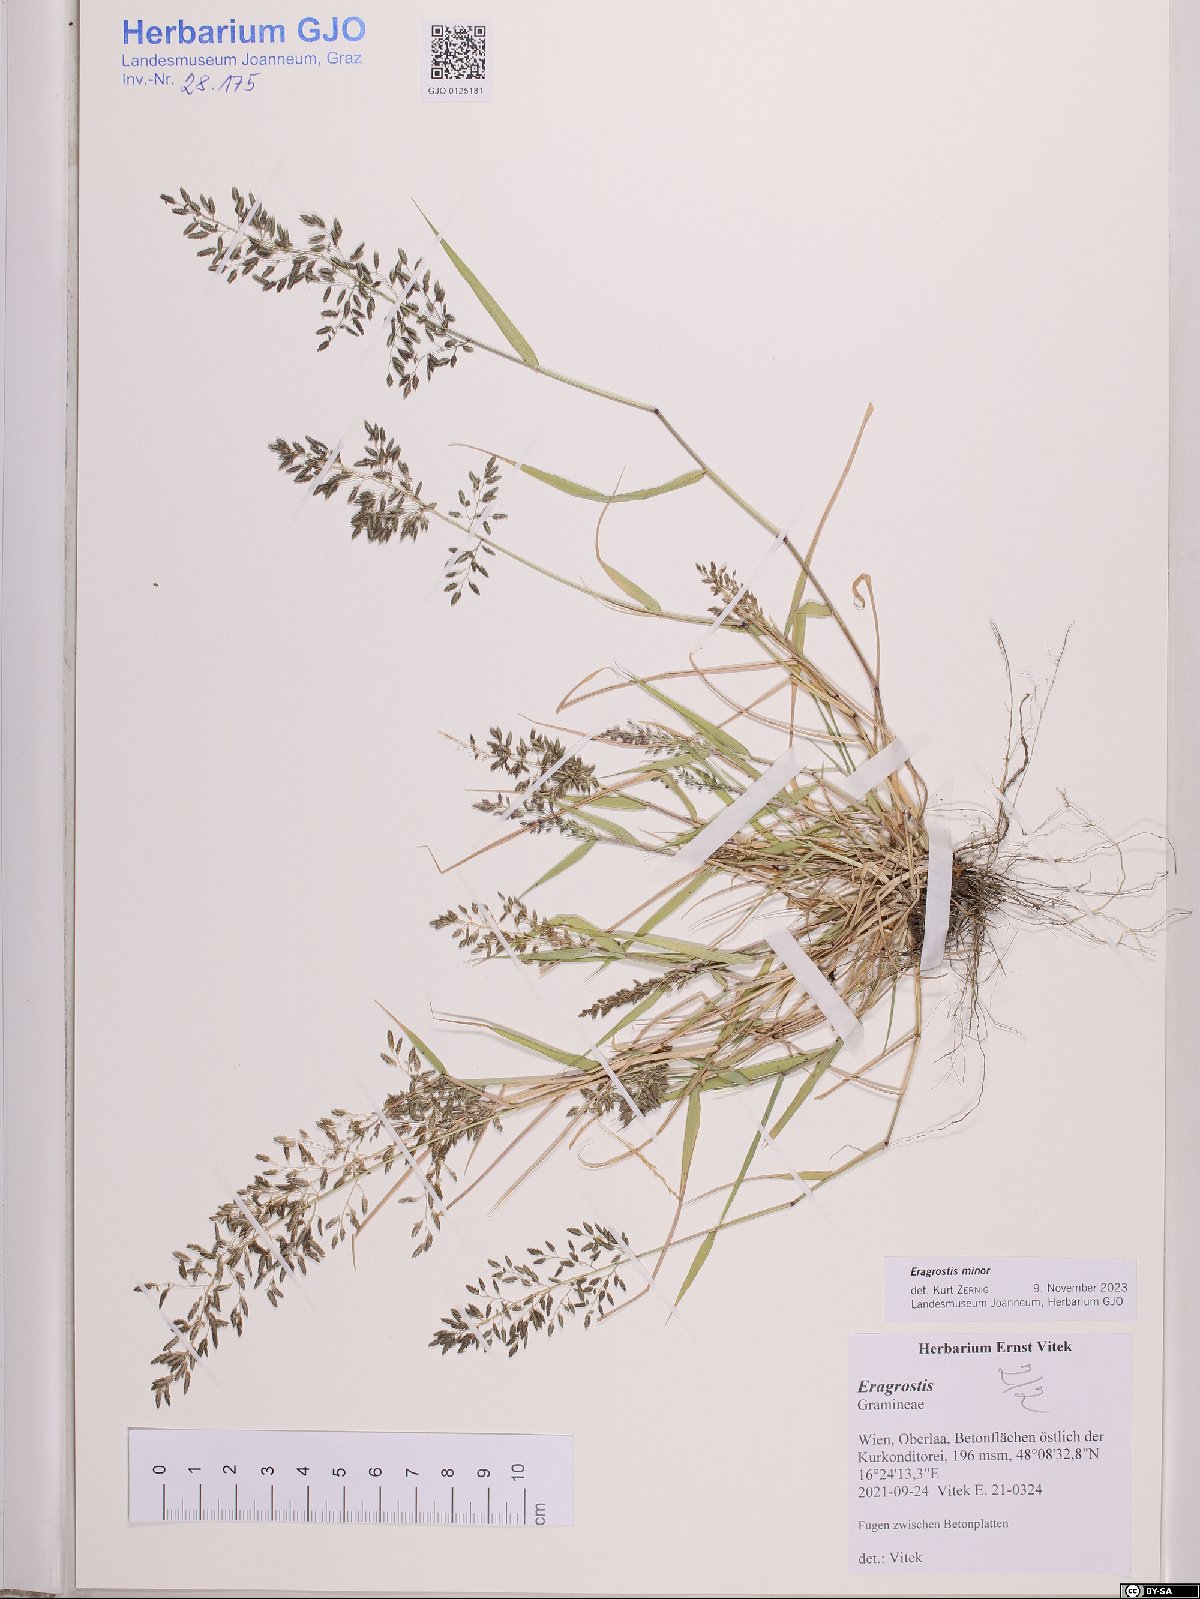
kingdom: Plantae
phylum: Tracheophyta
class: Liliopsida
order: Poales
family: Poaceae
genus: Eragrostis
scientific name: Eragrostis minor
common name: Small love-grass
